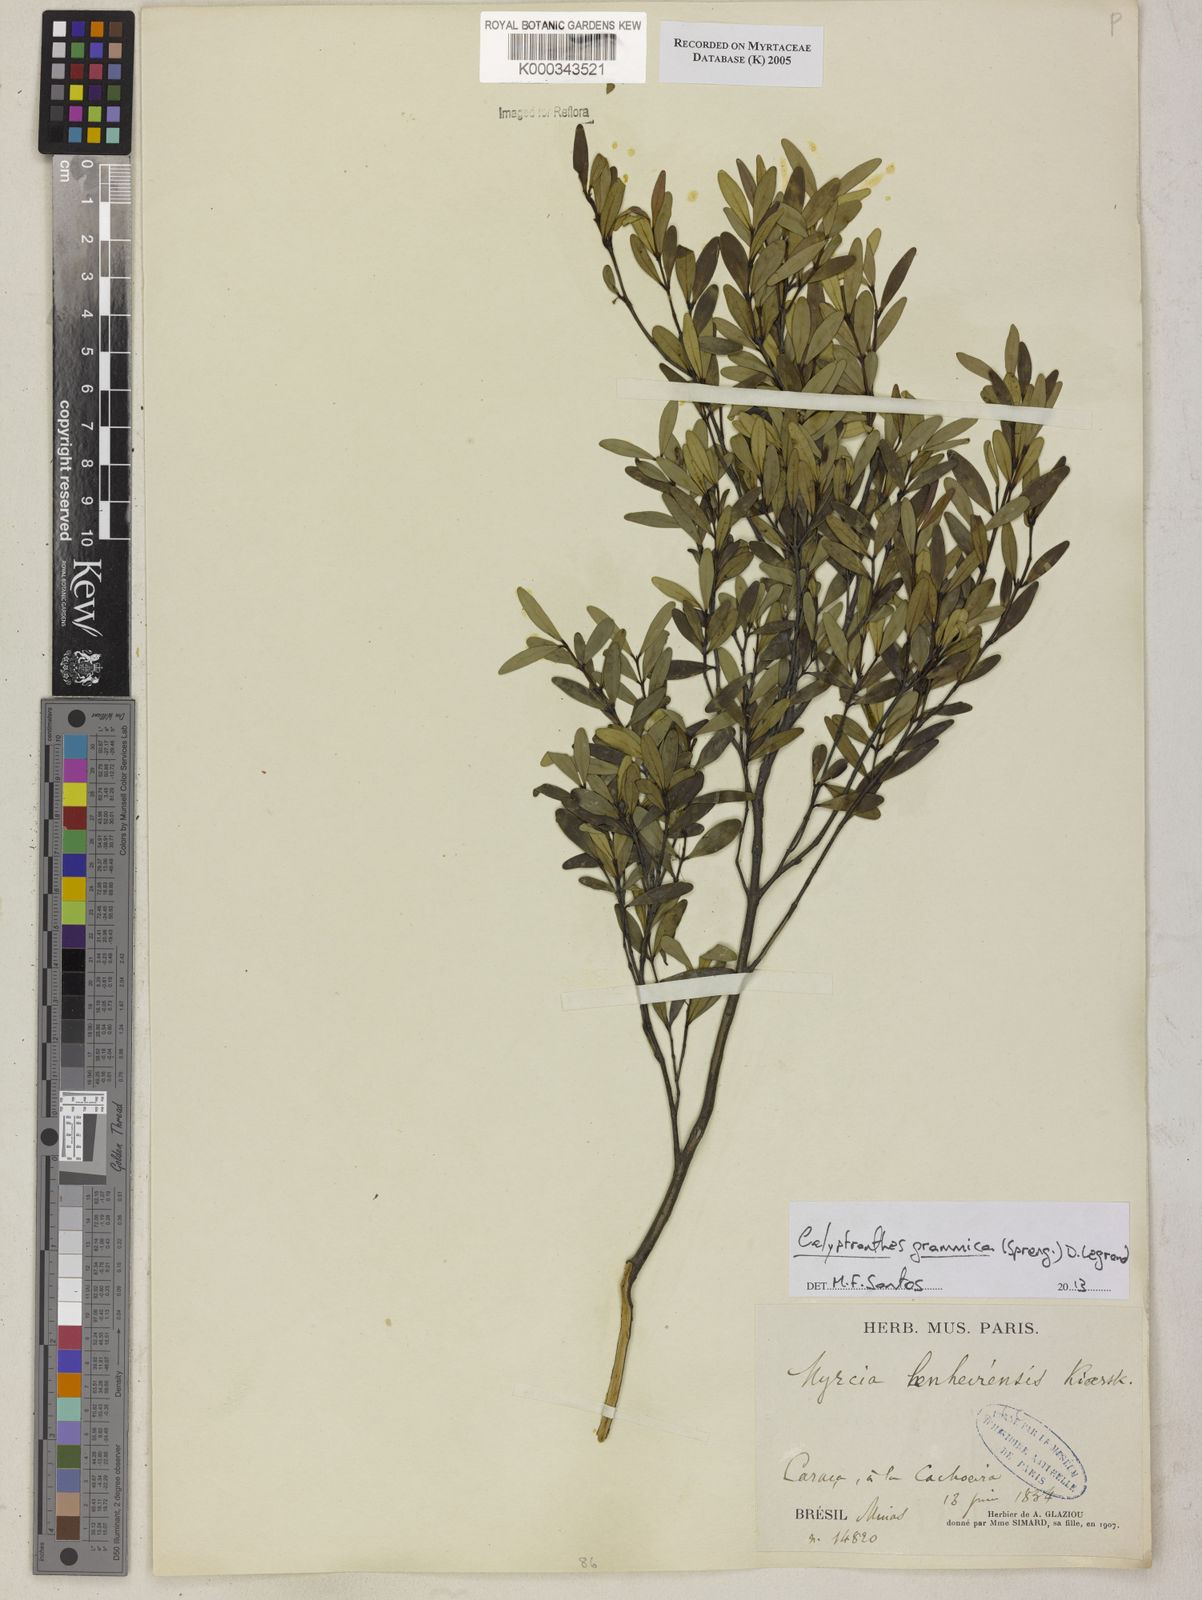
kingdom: Plantae
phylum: Tracheophyta
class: Magnoliopsida
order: Myrtales
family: Myrtaceae
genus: Myrcia
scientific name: Myrcia lenheirensis
